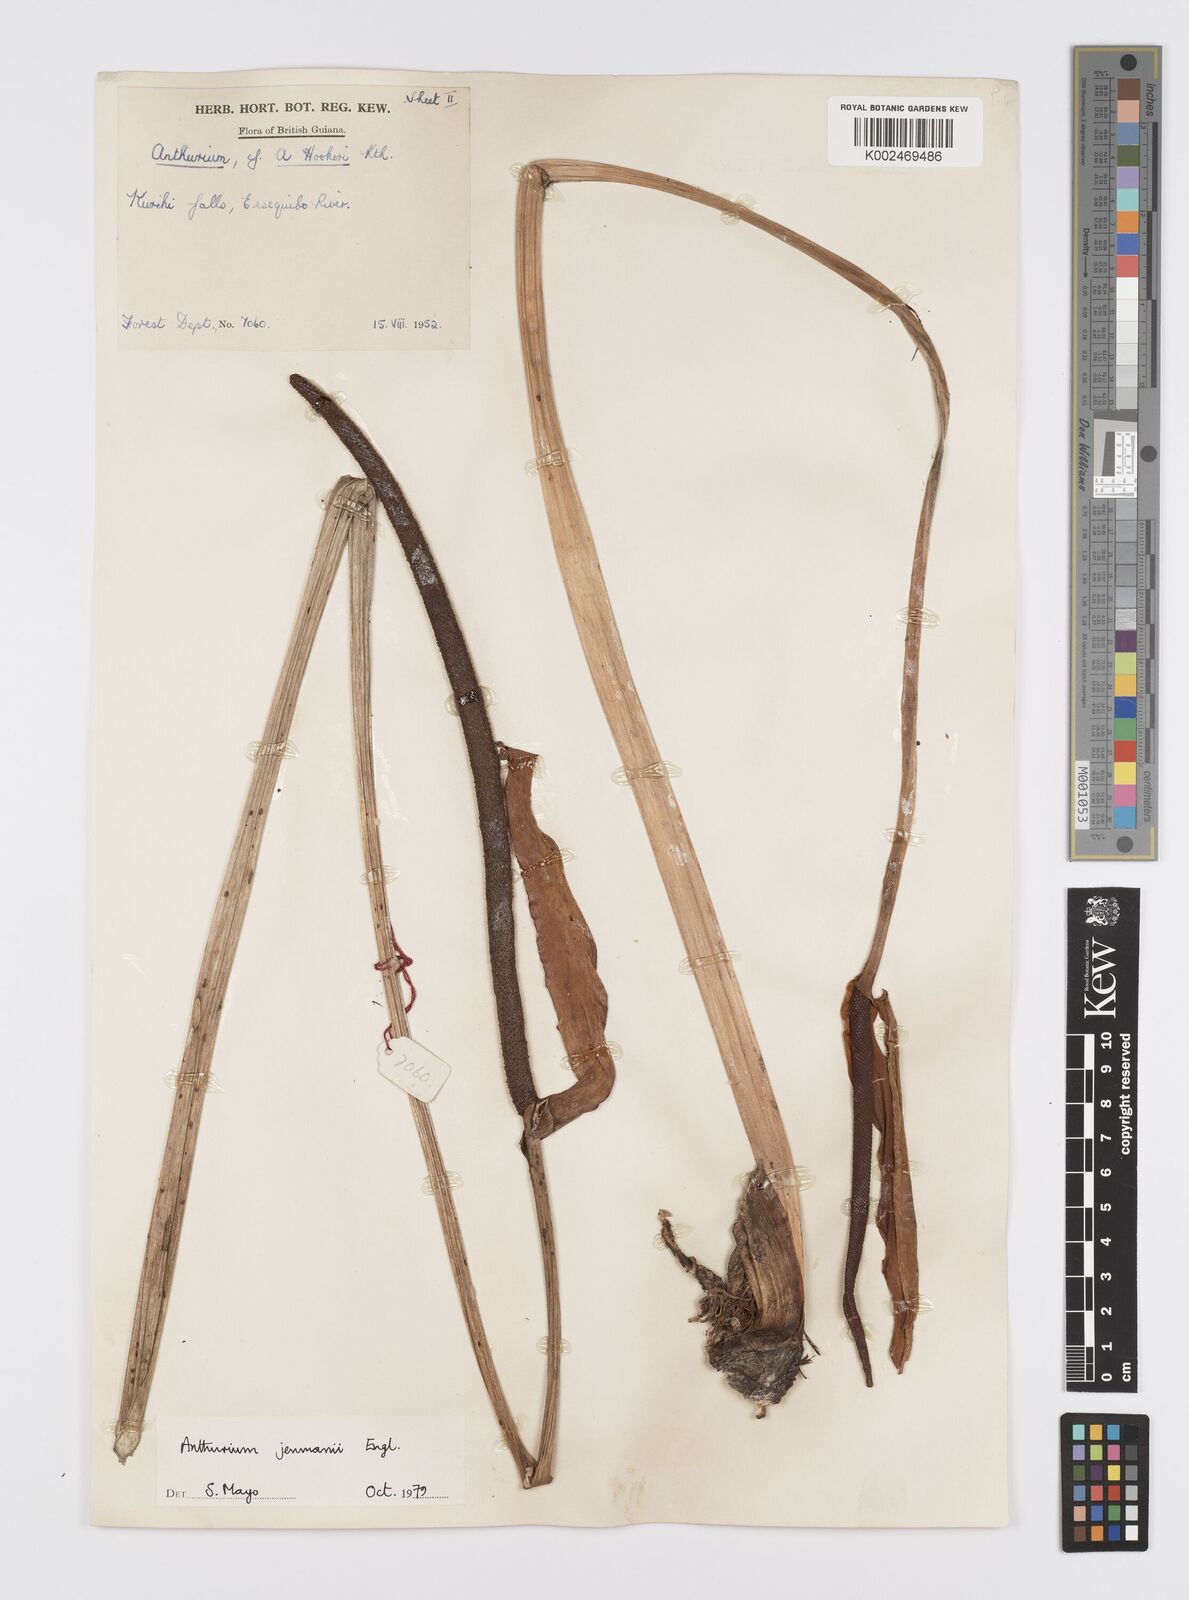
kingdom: Plantae
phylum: Tracheophyta
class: Liliopsida
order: Alismatales
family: Araceae
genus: Anthurium
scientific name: Anthurium jenmanii
